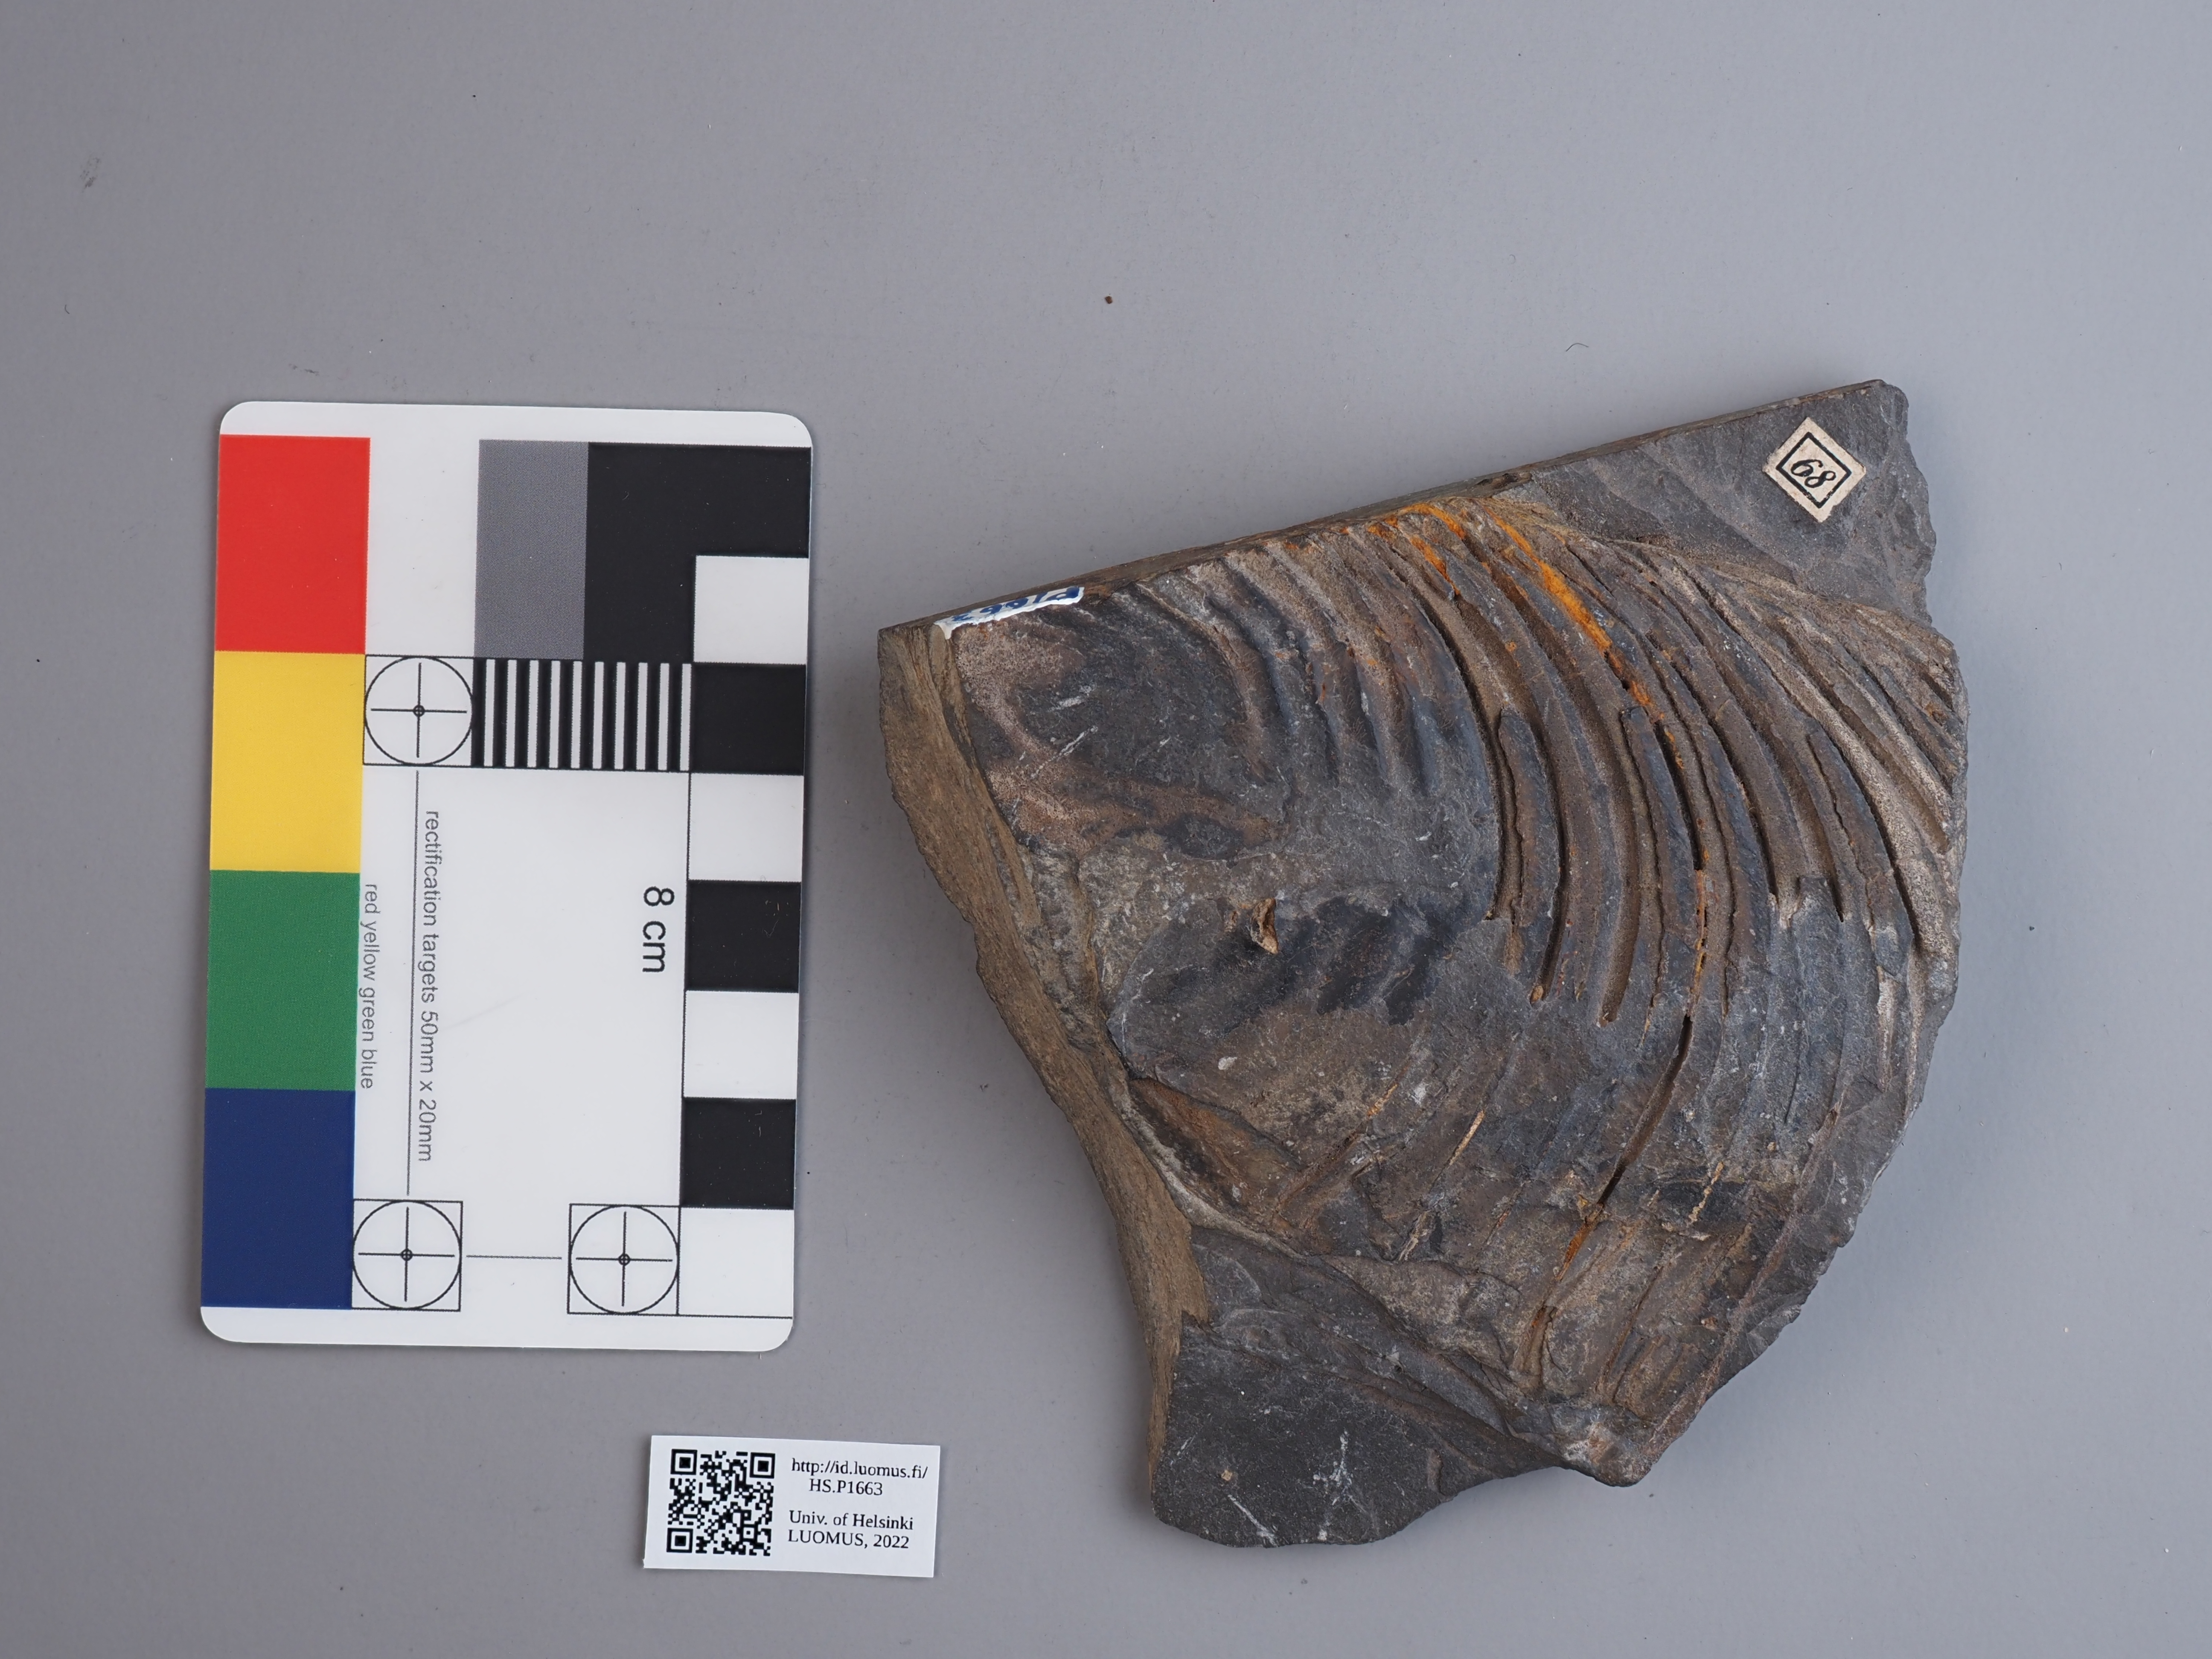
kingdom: Animalia
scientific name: Animalia
